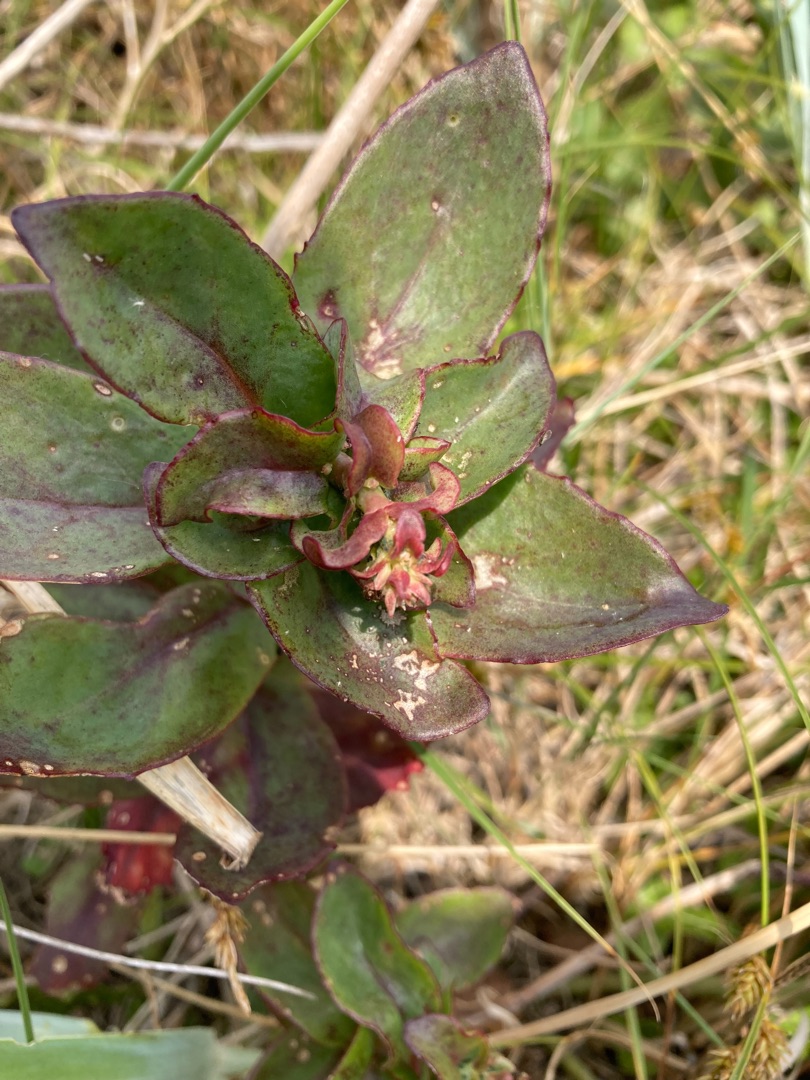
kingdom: Plantae
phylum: Tracheophyta
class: Magnoliopsida
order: Saxifragales
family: Crassulaceae
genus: Hylotelephium
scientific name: Hylotelephium maximum
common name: Almindelig sankthansurt
